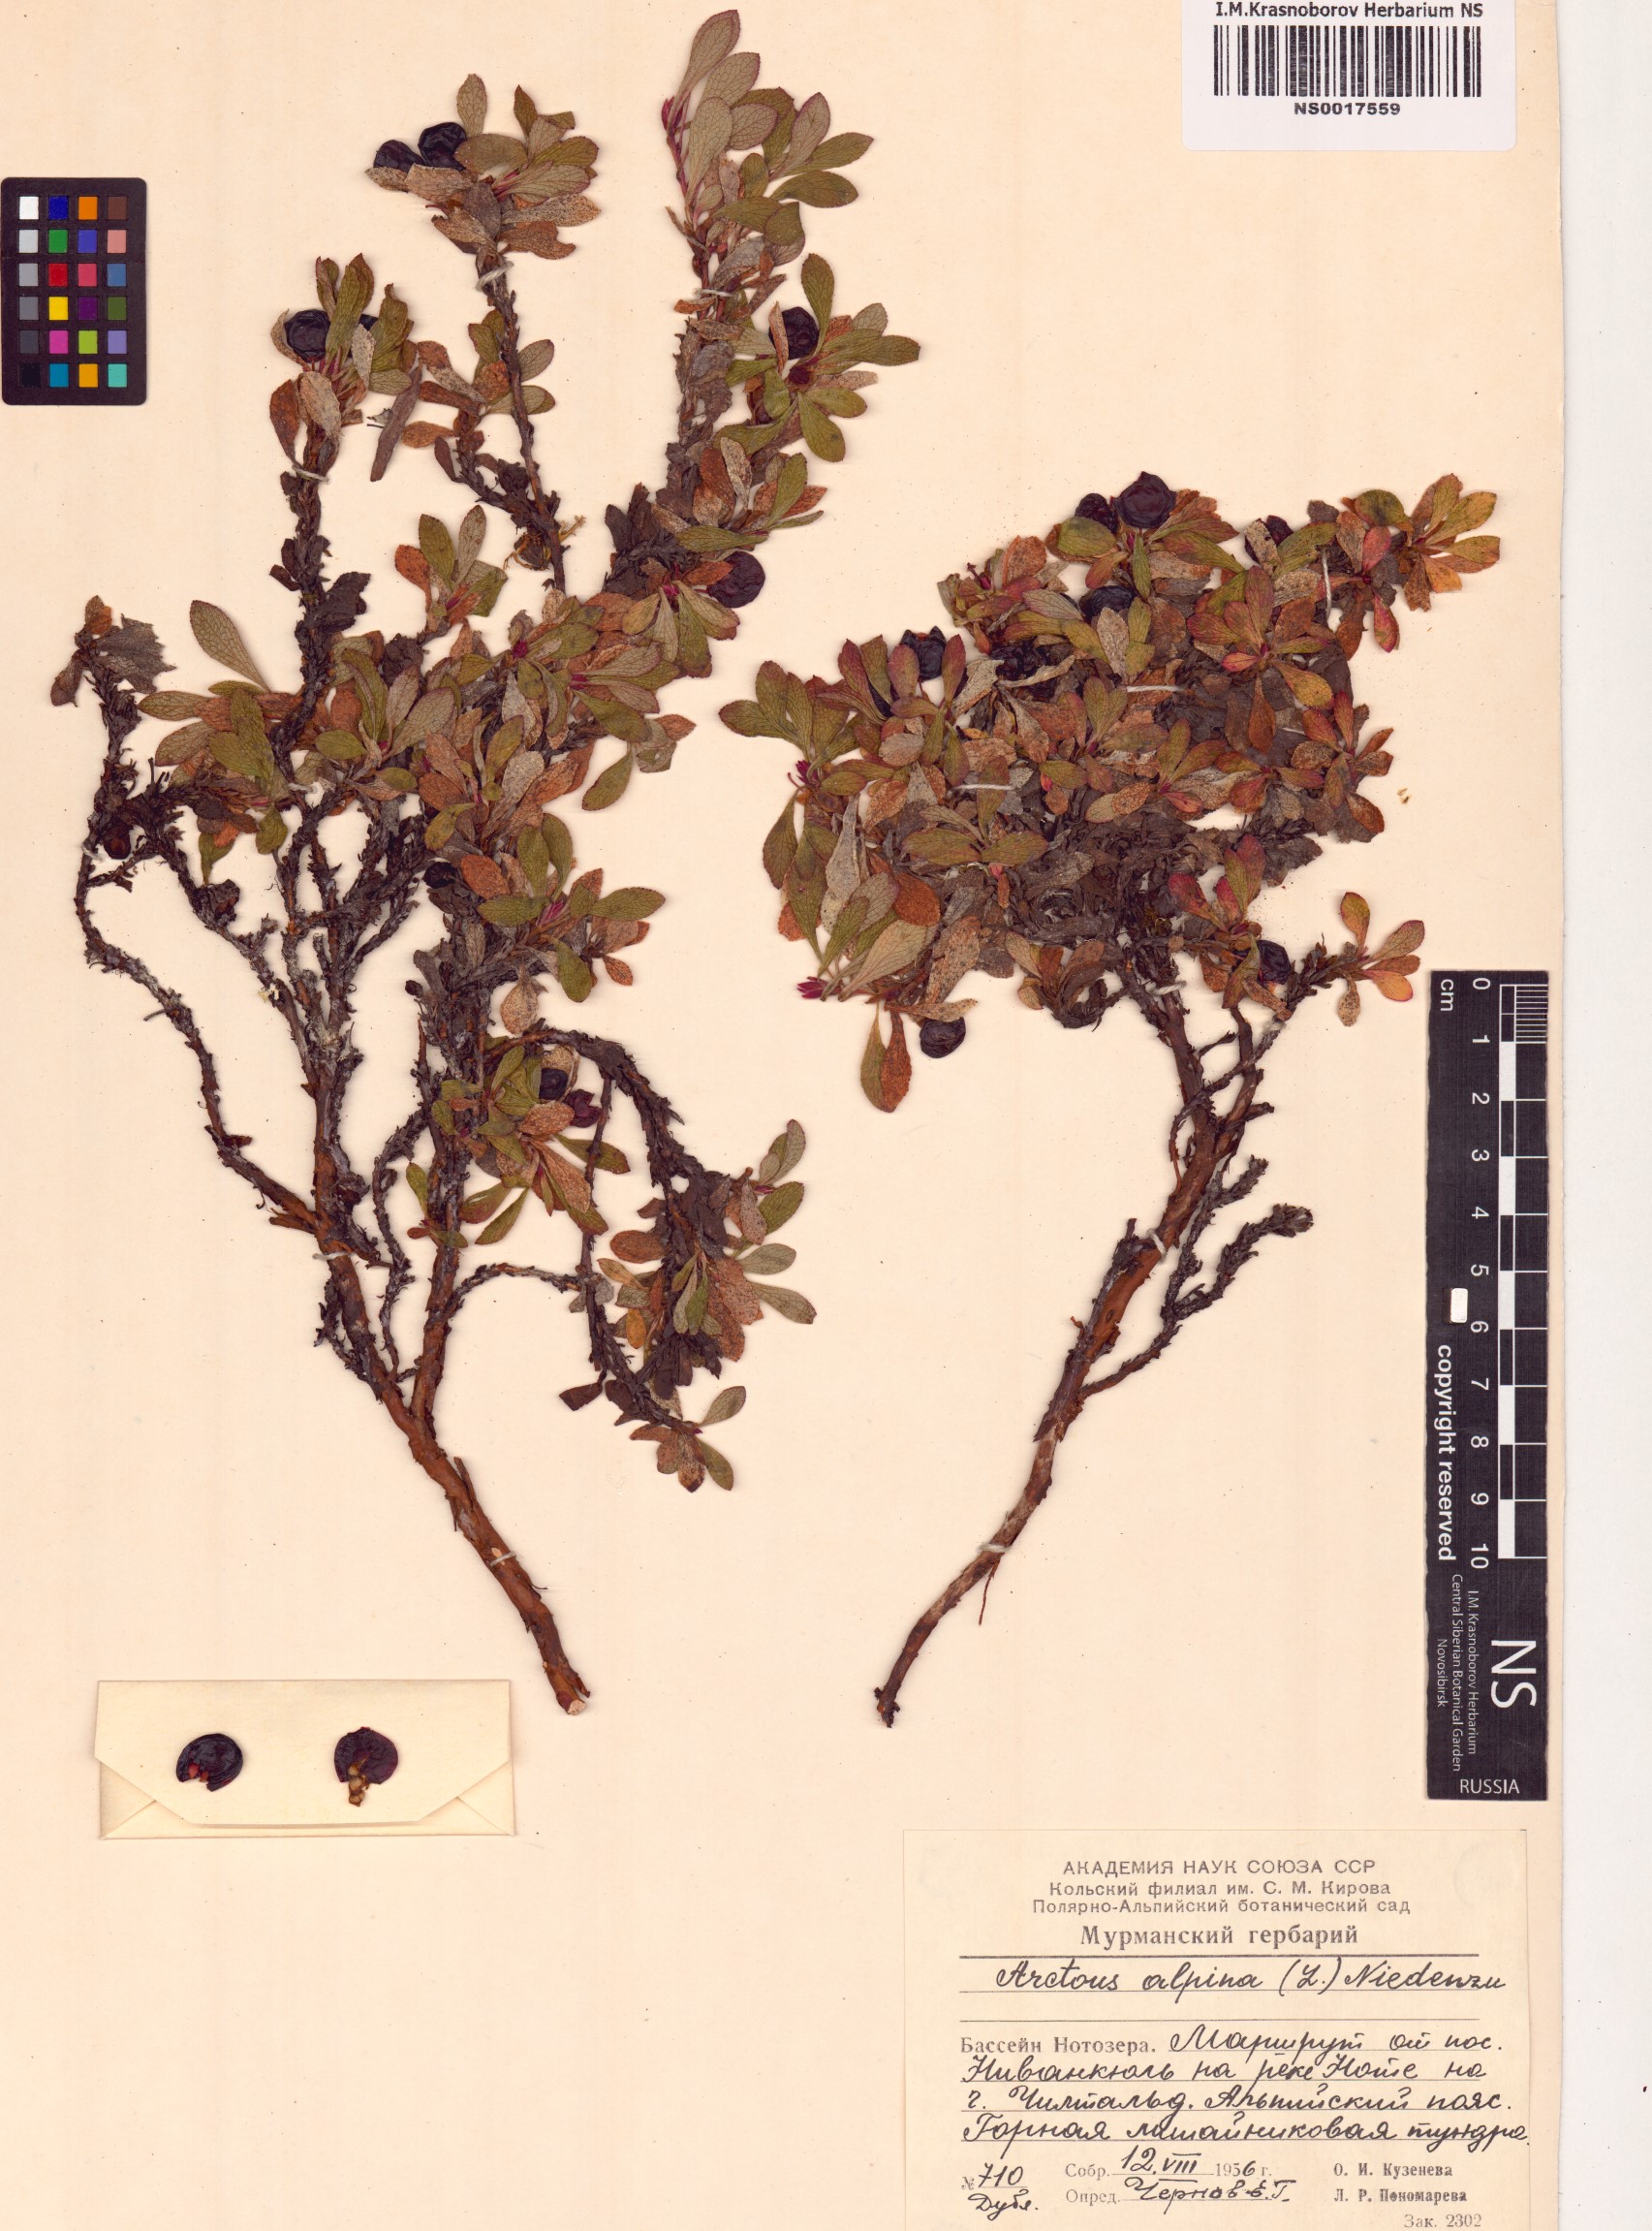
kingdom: Plantae
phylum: Tracheophyta
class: Magnoliopsida
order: Ericales
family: Ericaceae
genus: Arctostaphylos
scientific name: Arctostaphylos alpinus
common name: Alpine bearberry
